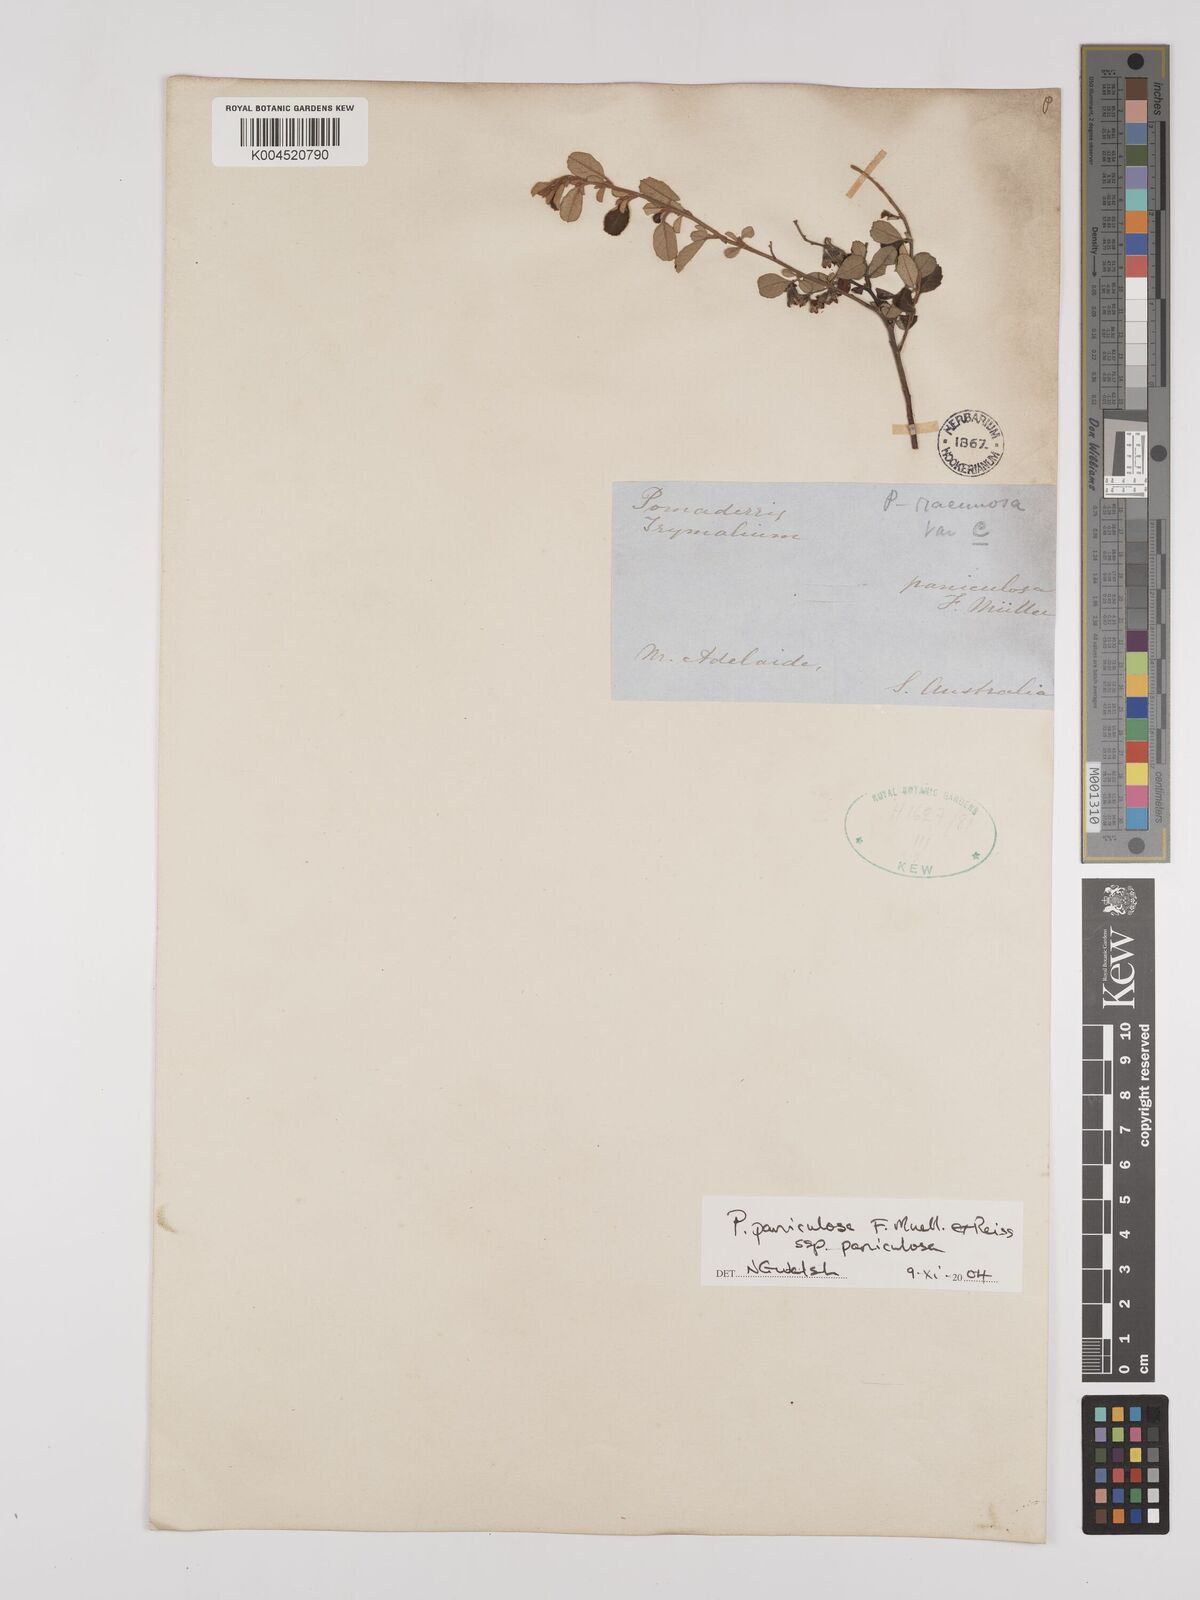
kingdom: Plantae
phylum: Tracheophyta
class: Magnoliopsida
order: Rosales
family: Rhamnaceae
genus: Pomaderris
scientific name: Pomaderris paniculosa
